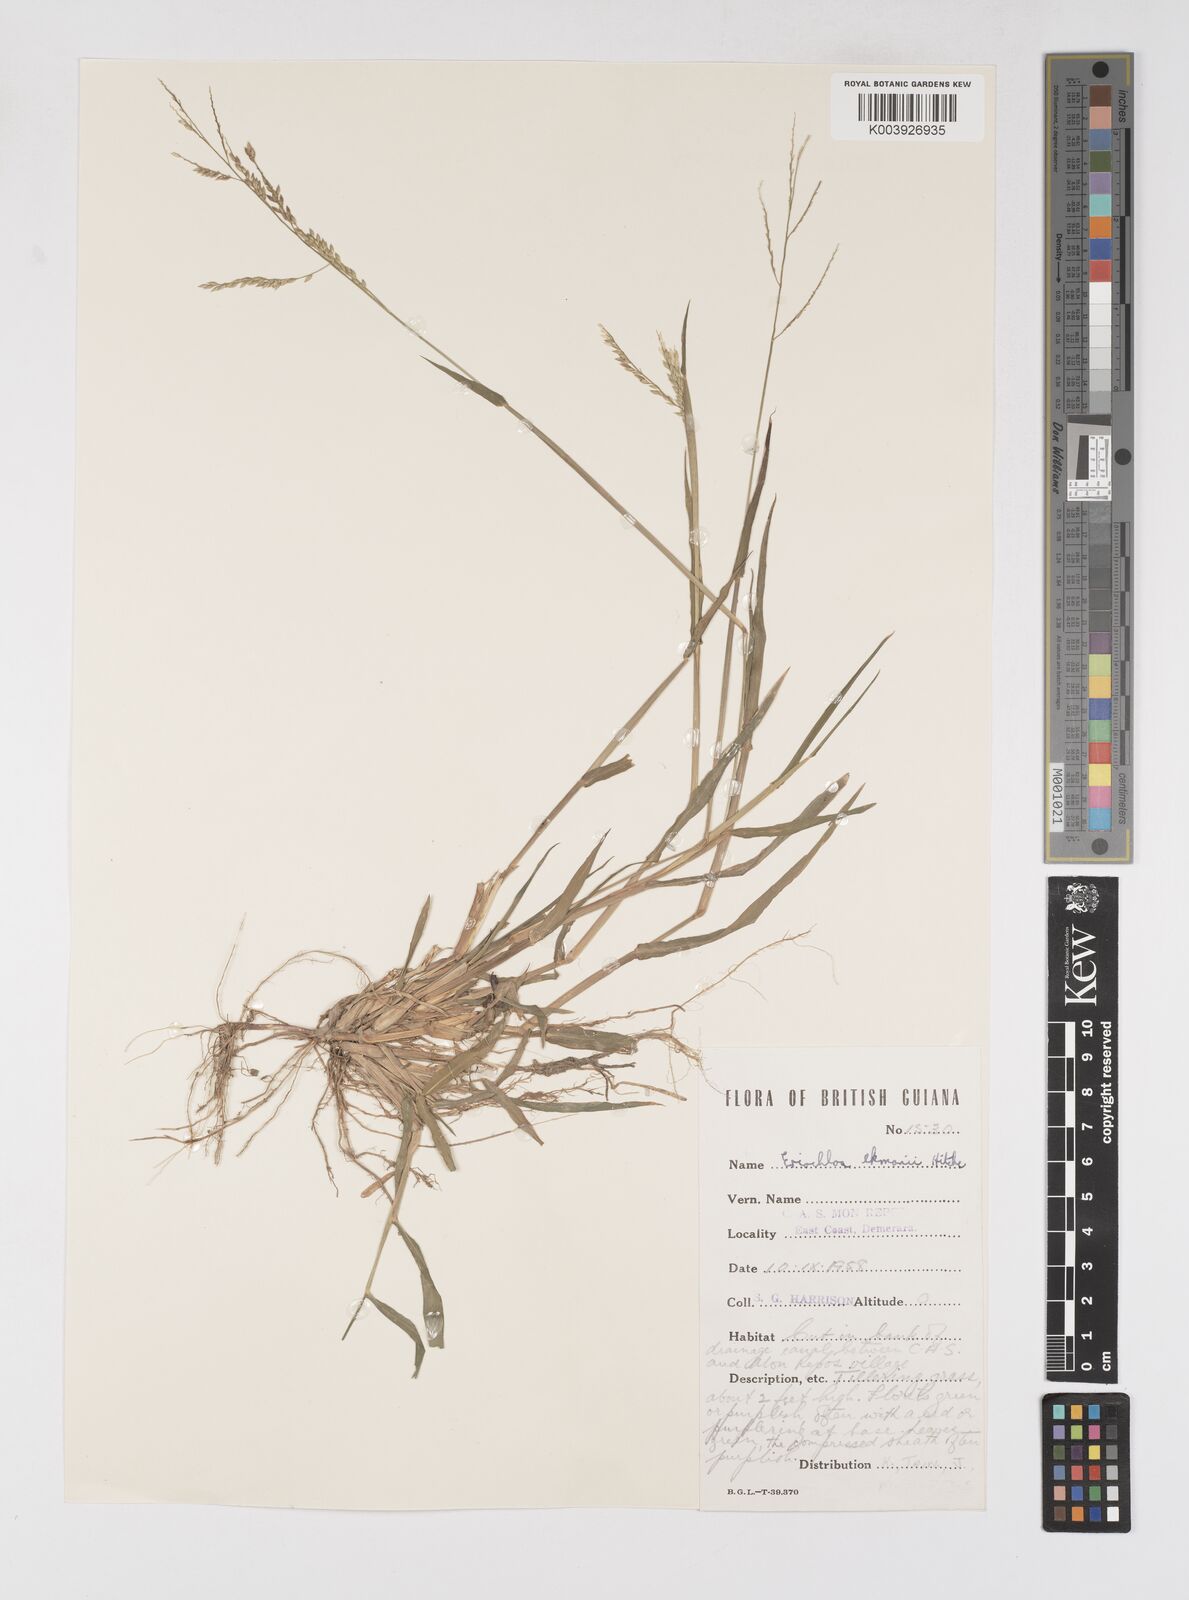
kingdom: Plantae
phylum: Tracheophyta
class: Liliopsida
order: Poales
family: Poaceae
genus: Eriochloa
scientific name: Eriochloa procera
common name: Spring grass
